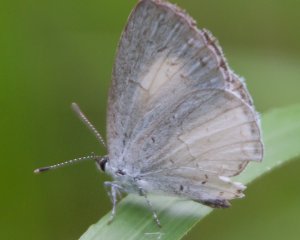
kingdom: Animalia
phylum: Arthropoda
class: Insecta
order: Lepidoptera
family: Lycaenidae
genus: Celastrina
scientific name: Celastrina serotina
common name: Cherry Gall Azure
